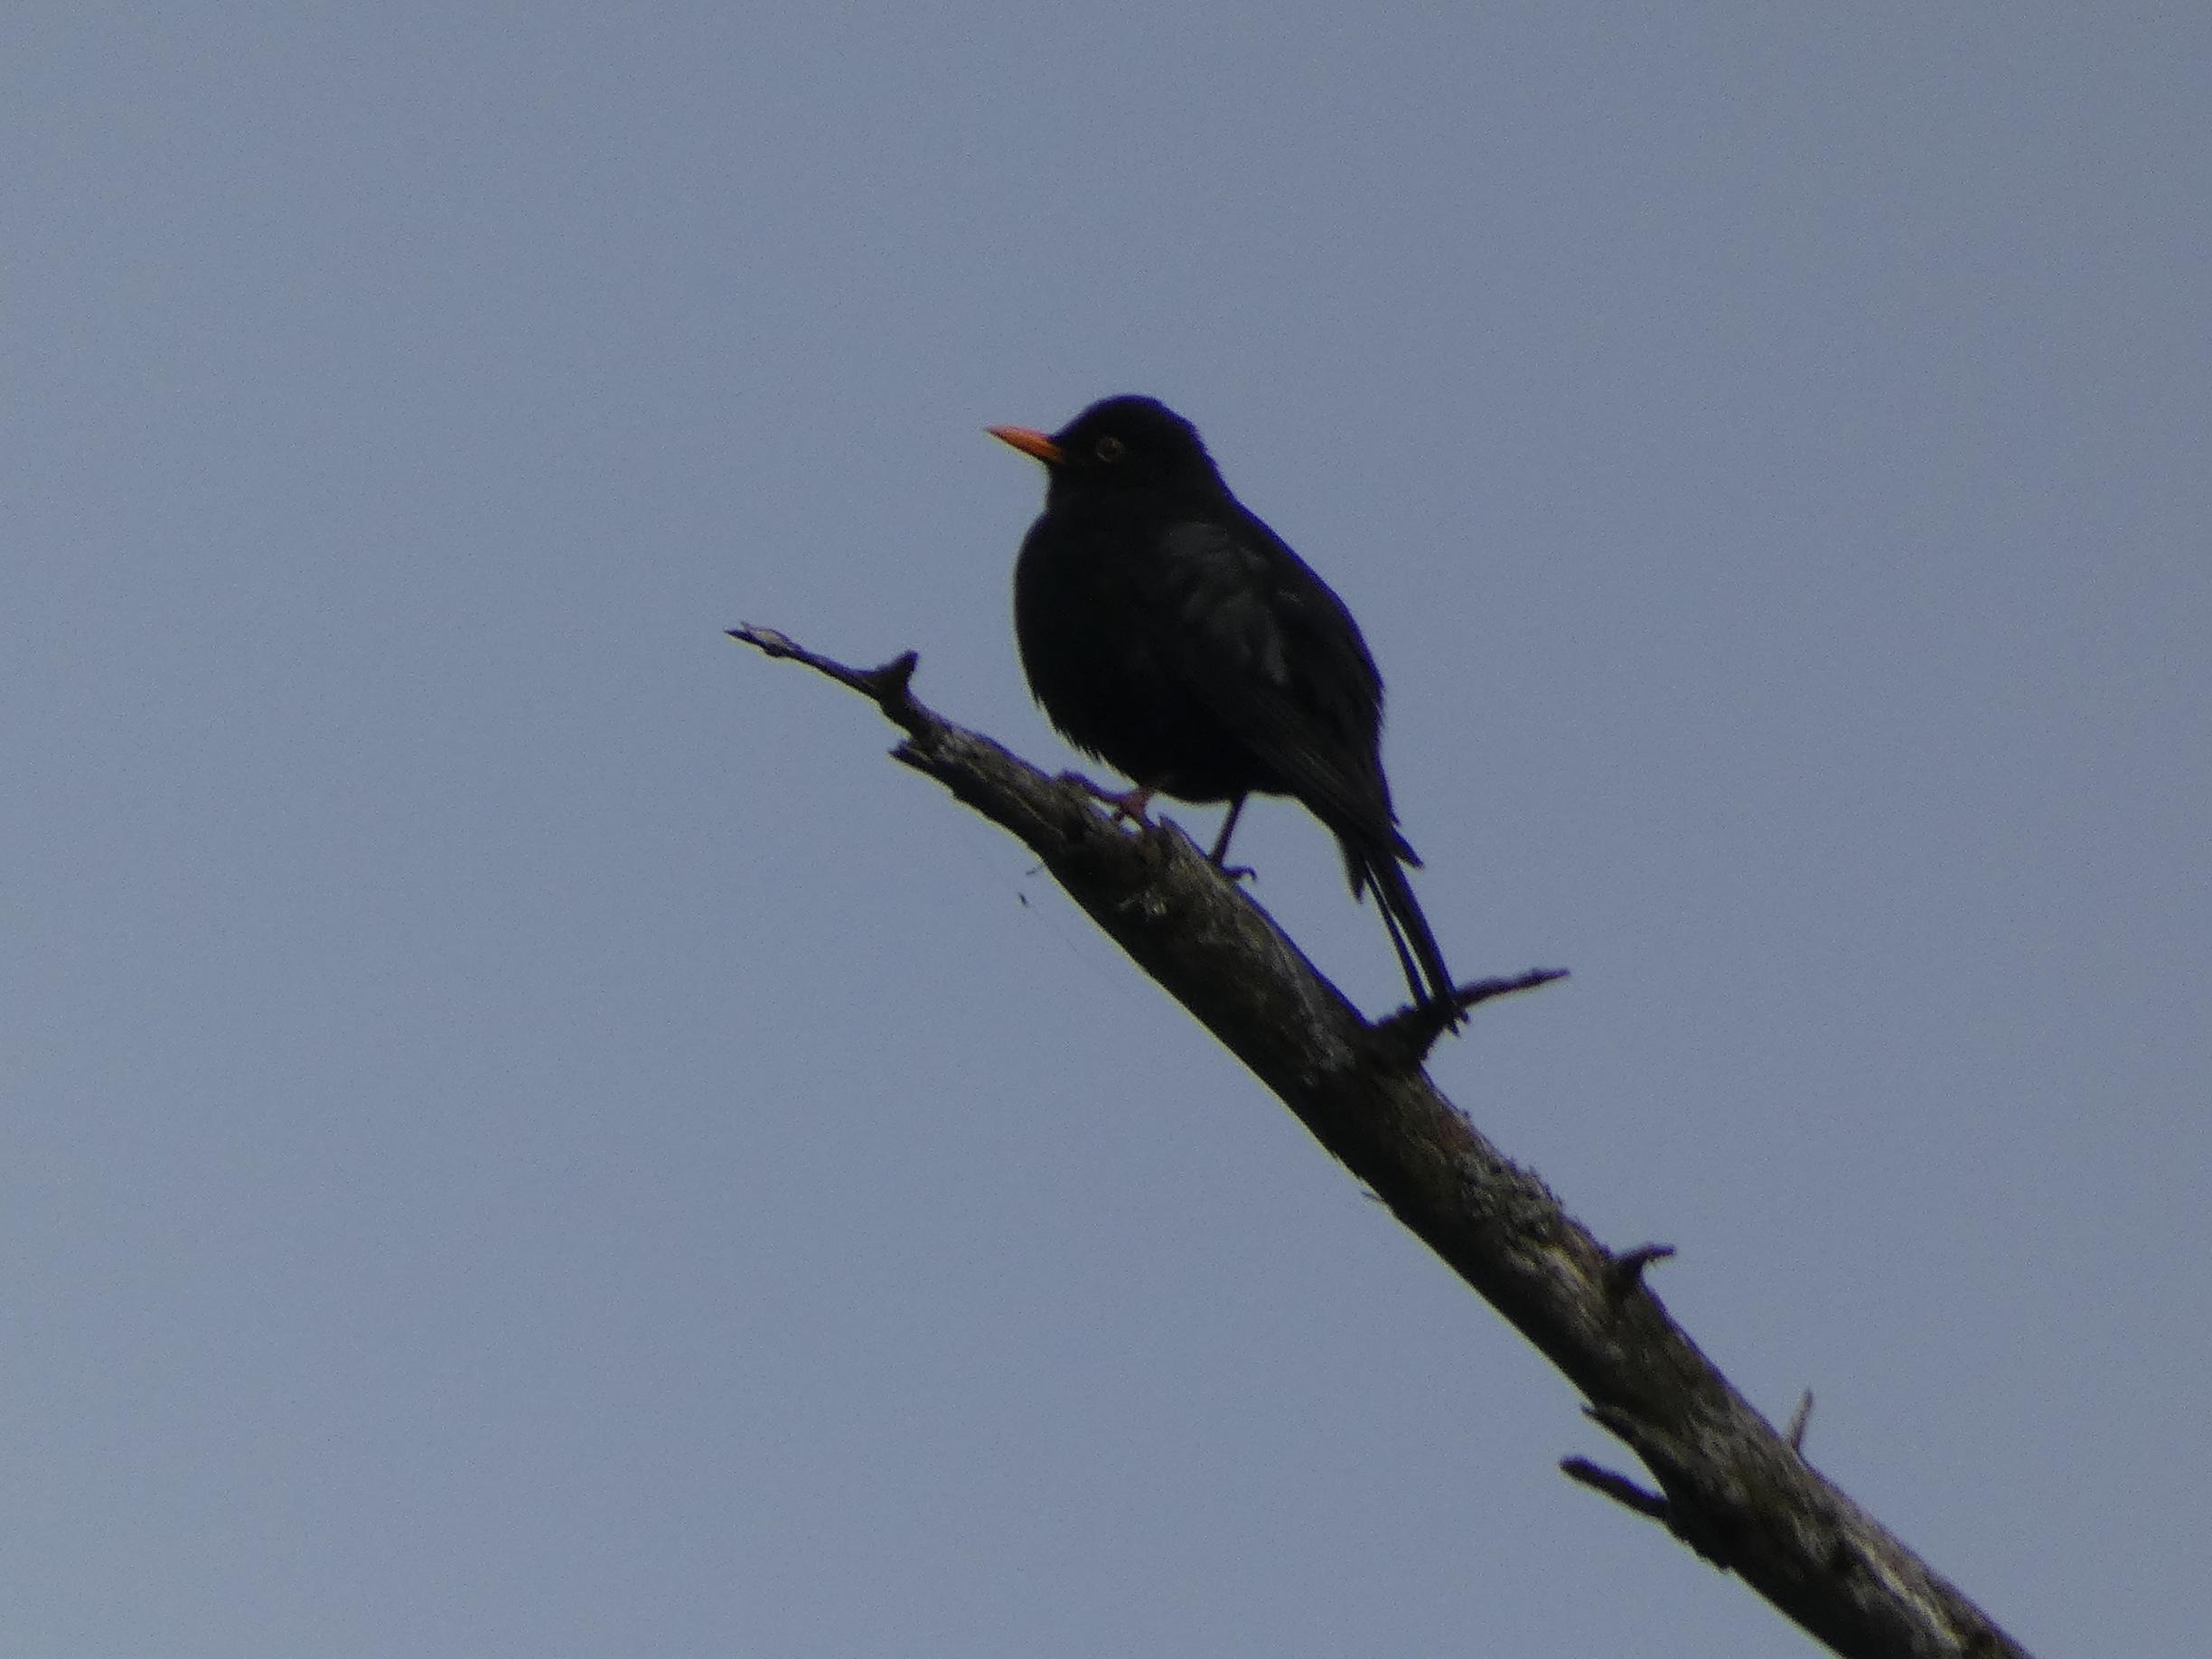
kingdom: Animalia
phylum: Chordata
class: Aves
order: Passeriformes
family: Turdidae
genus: Turdus
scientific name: Turdus merula
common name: Solsort
